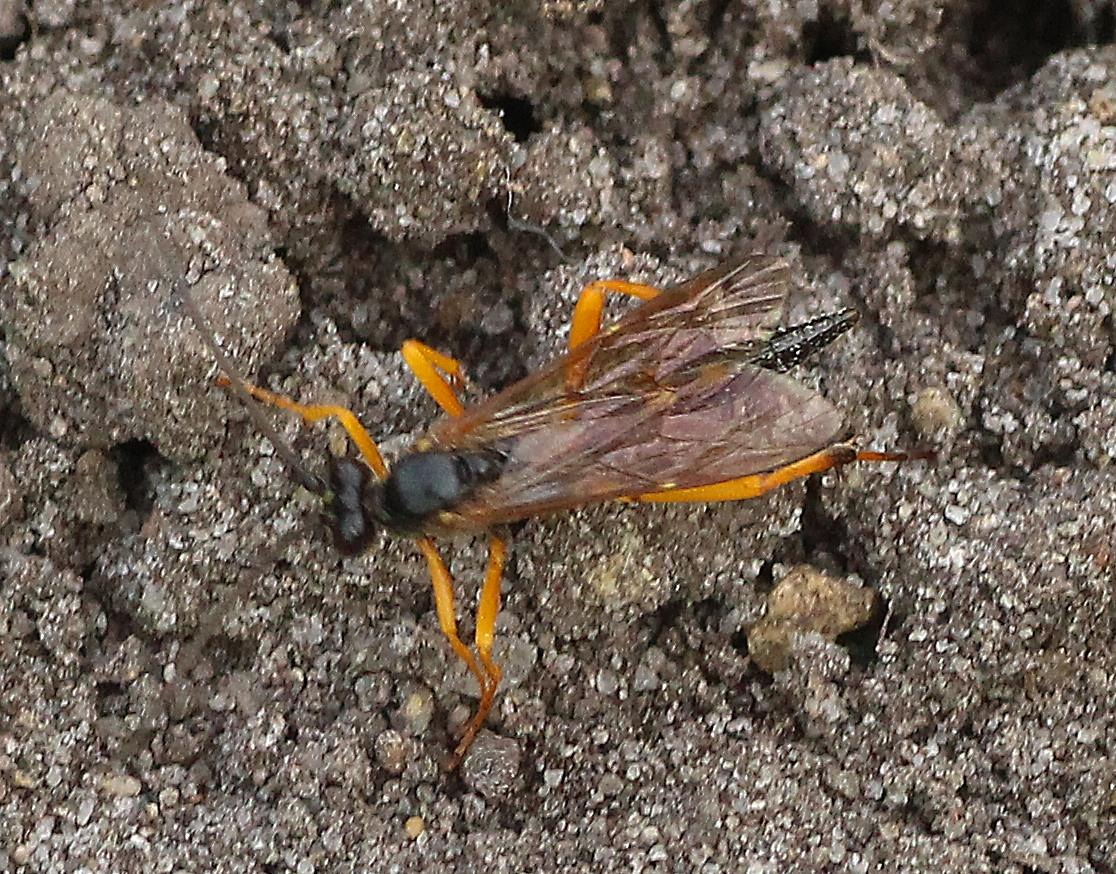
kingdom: Animalia
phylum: Arthropoda
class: Insecta
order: Hymenoptera
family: Ichneumonidae
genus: Banchus
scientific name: Banchus falcatorius
